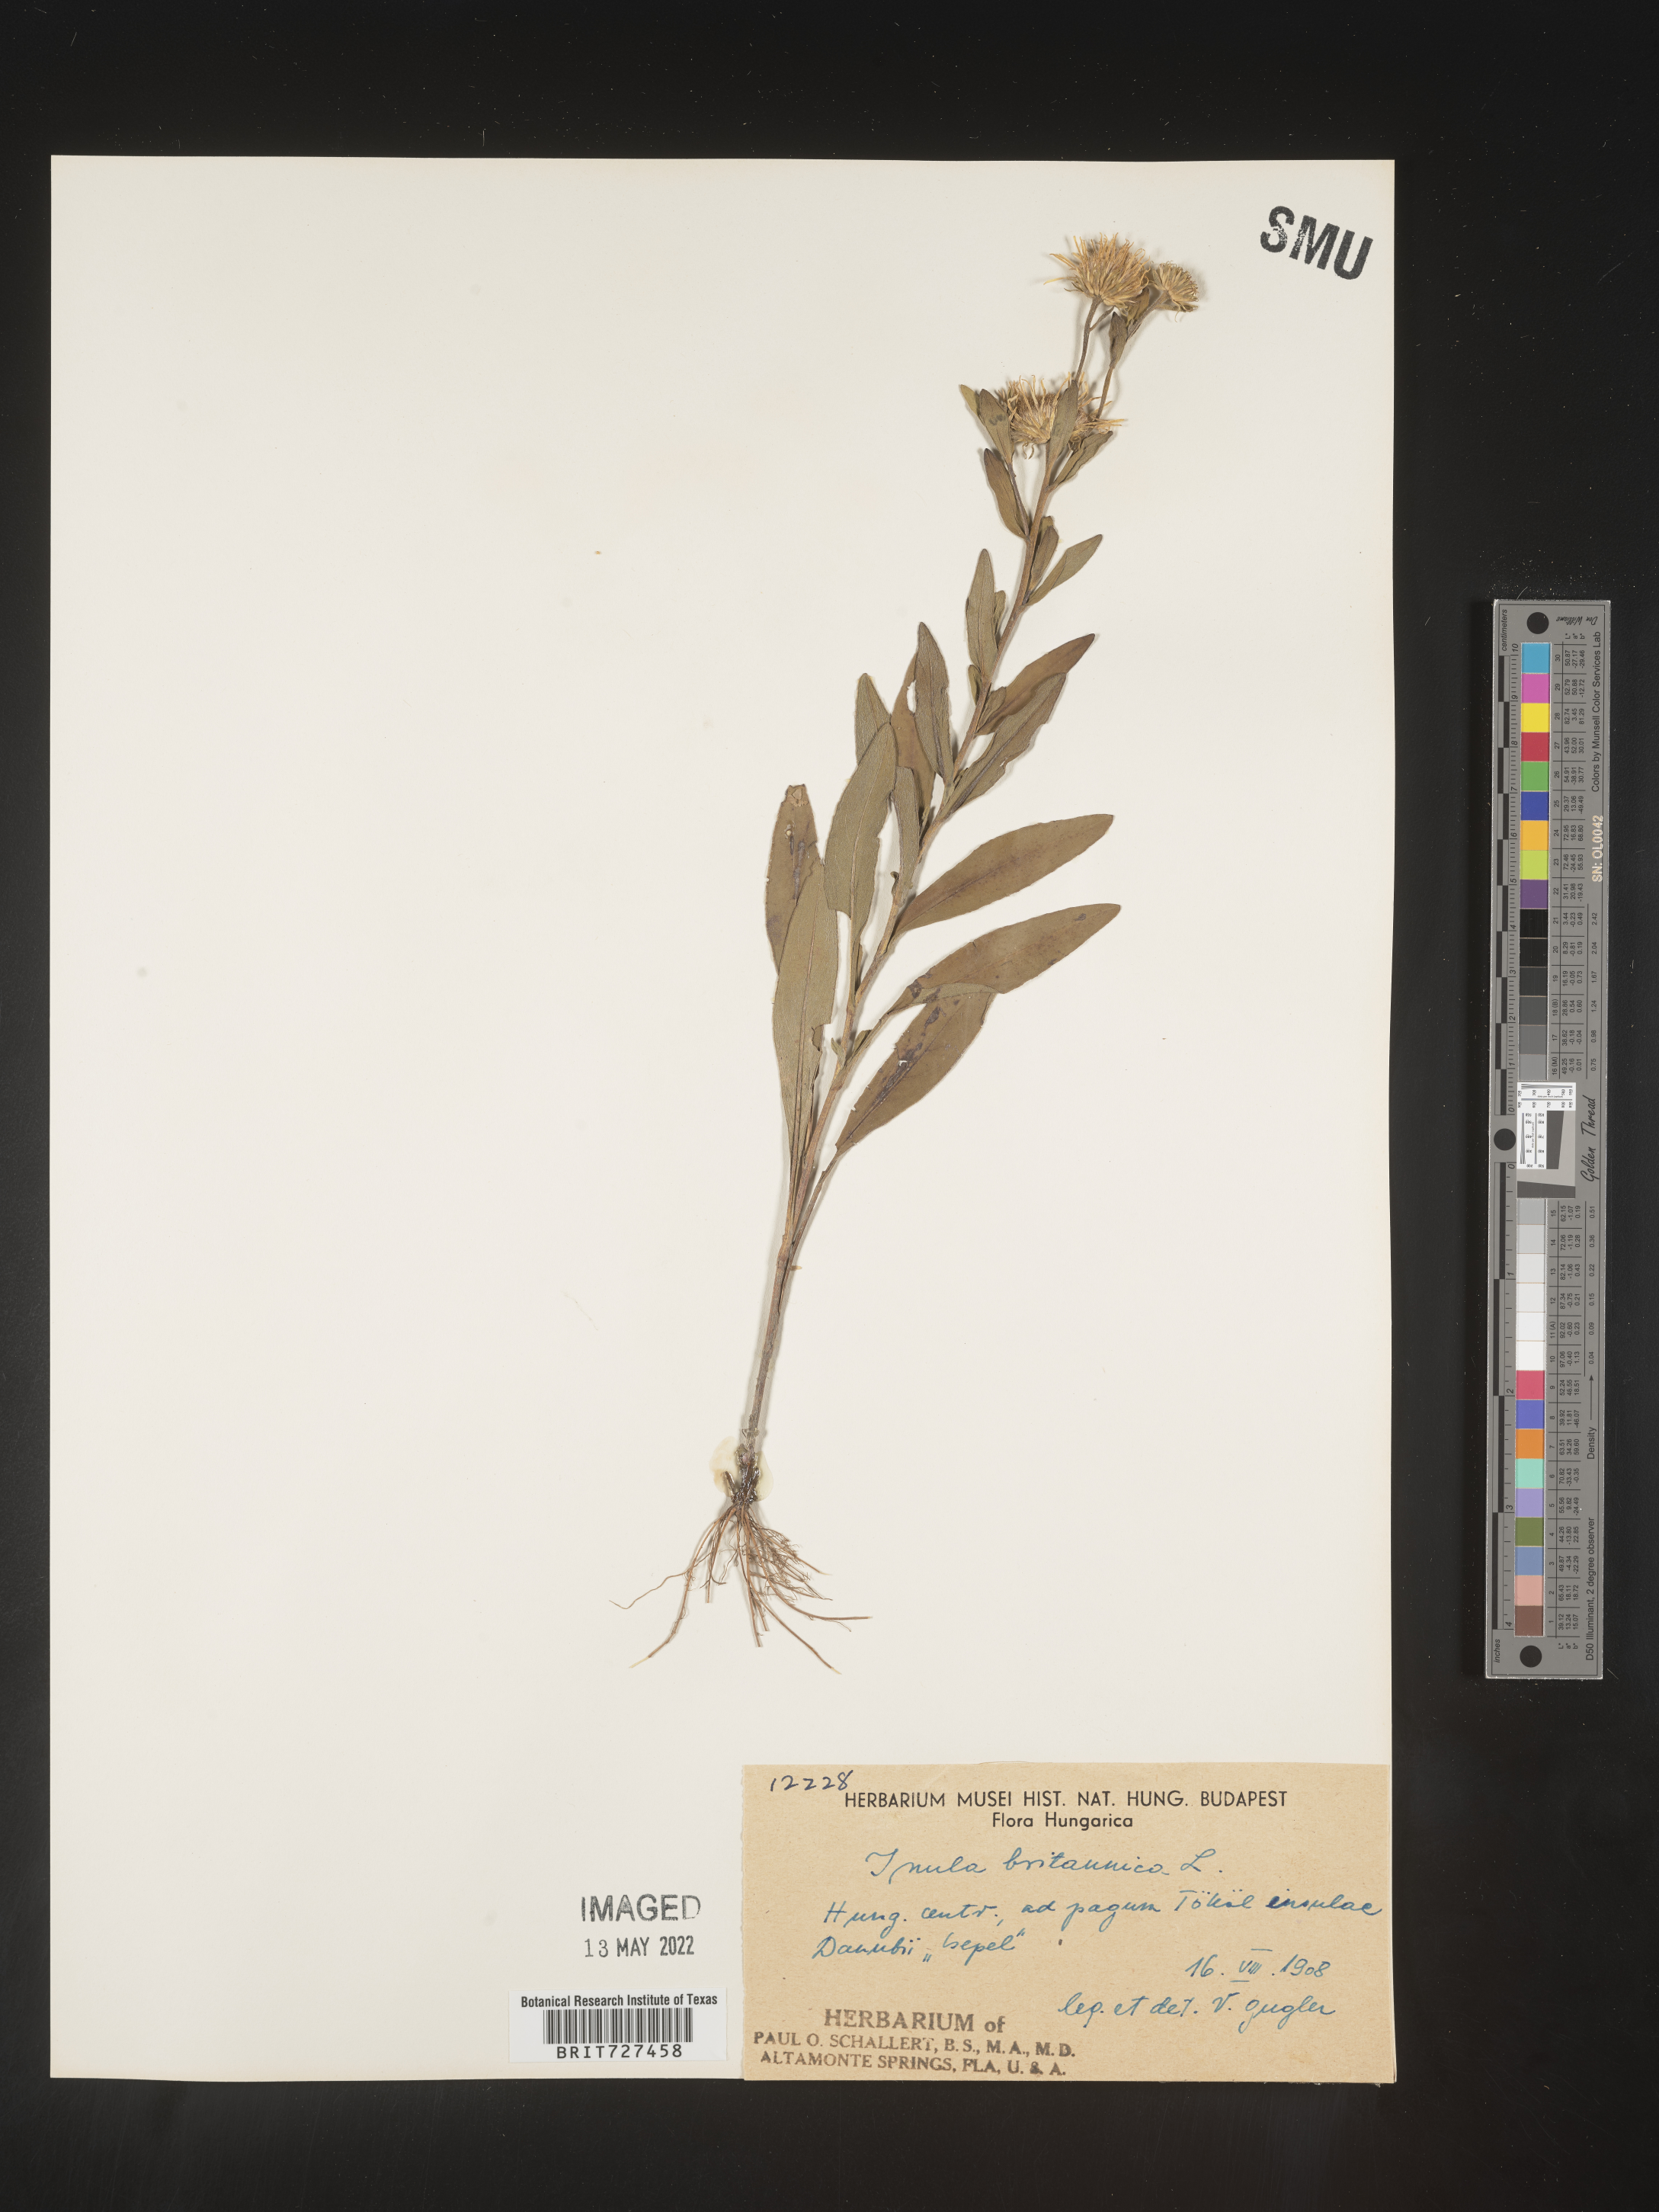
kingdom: Plantae
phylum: Tracheophyta
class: Magnoliopsida
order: Asterales
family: Asteraceae
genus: Inula
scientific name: Inula
